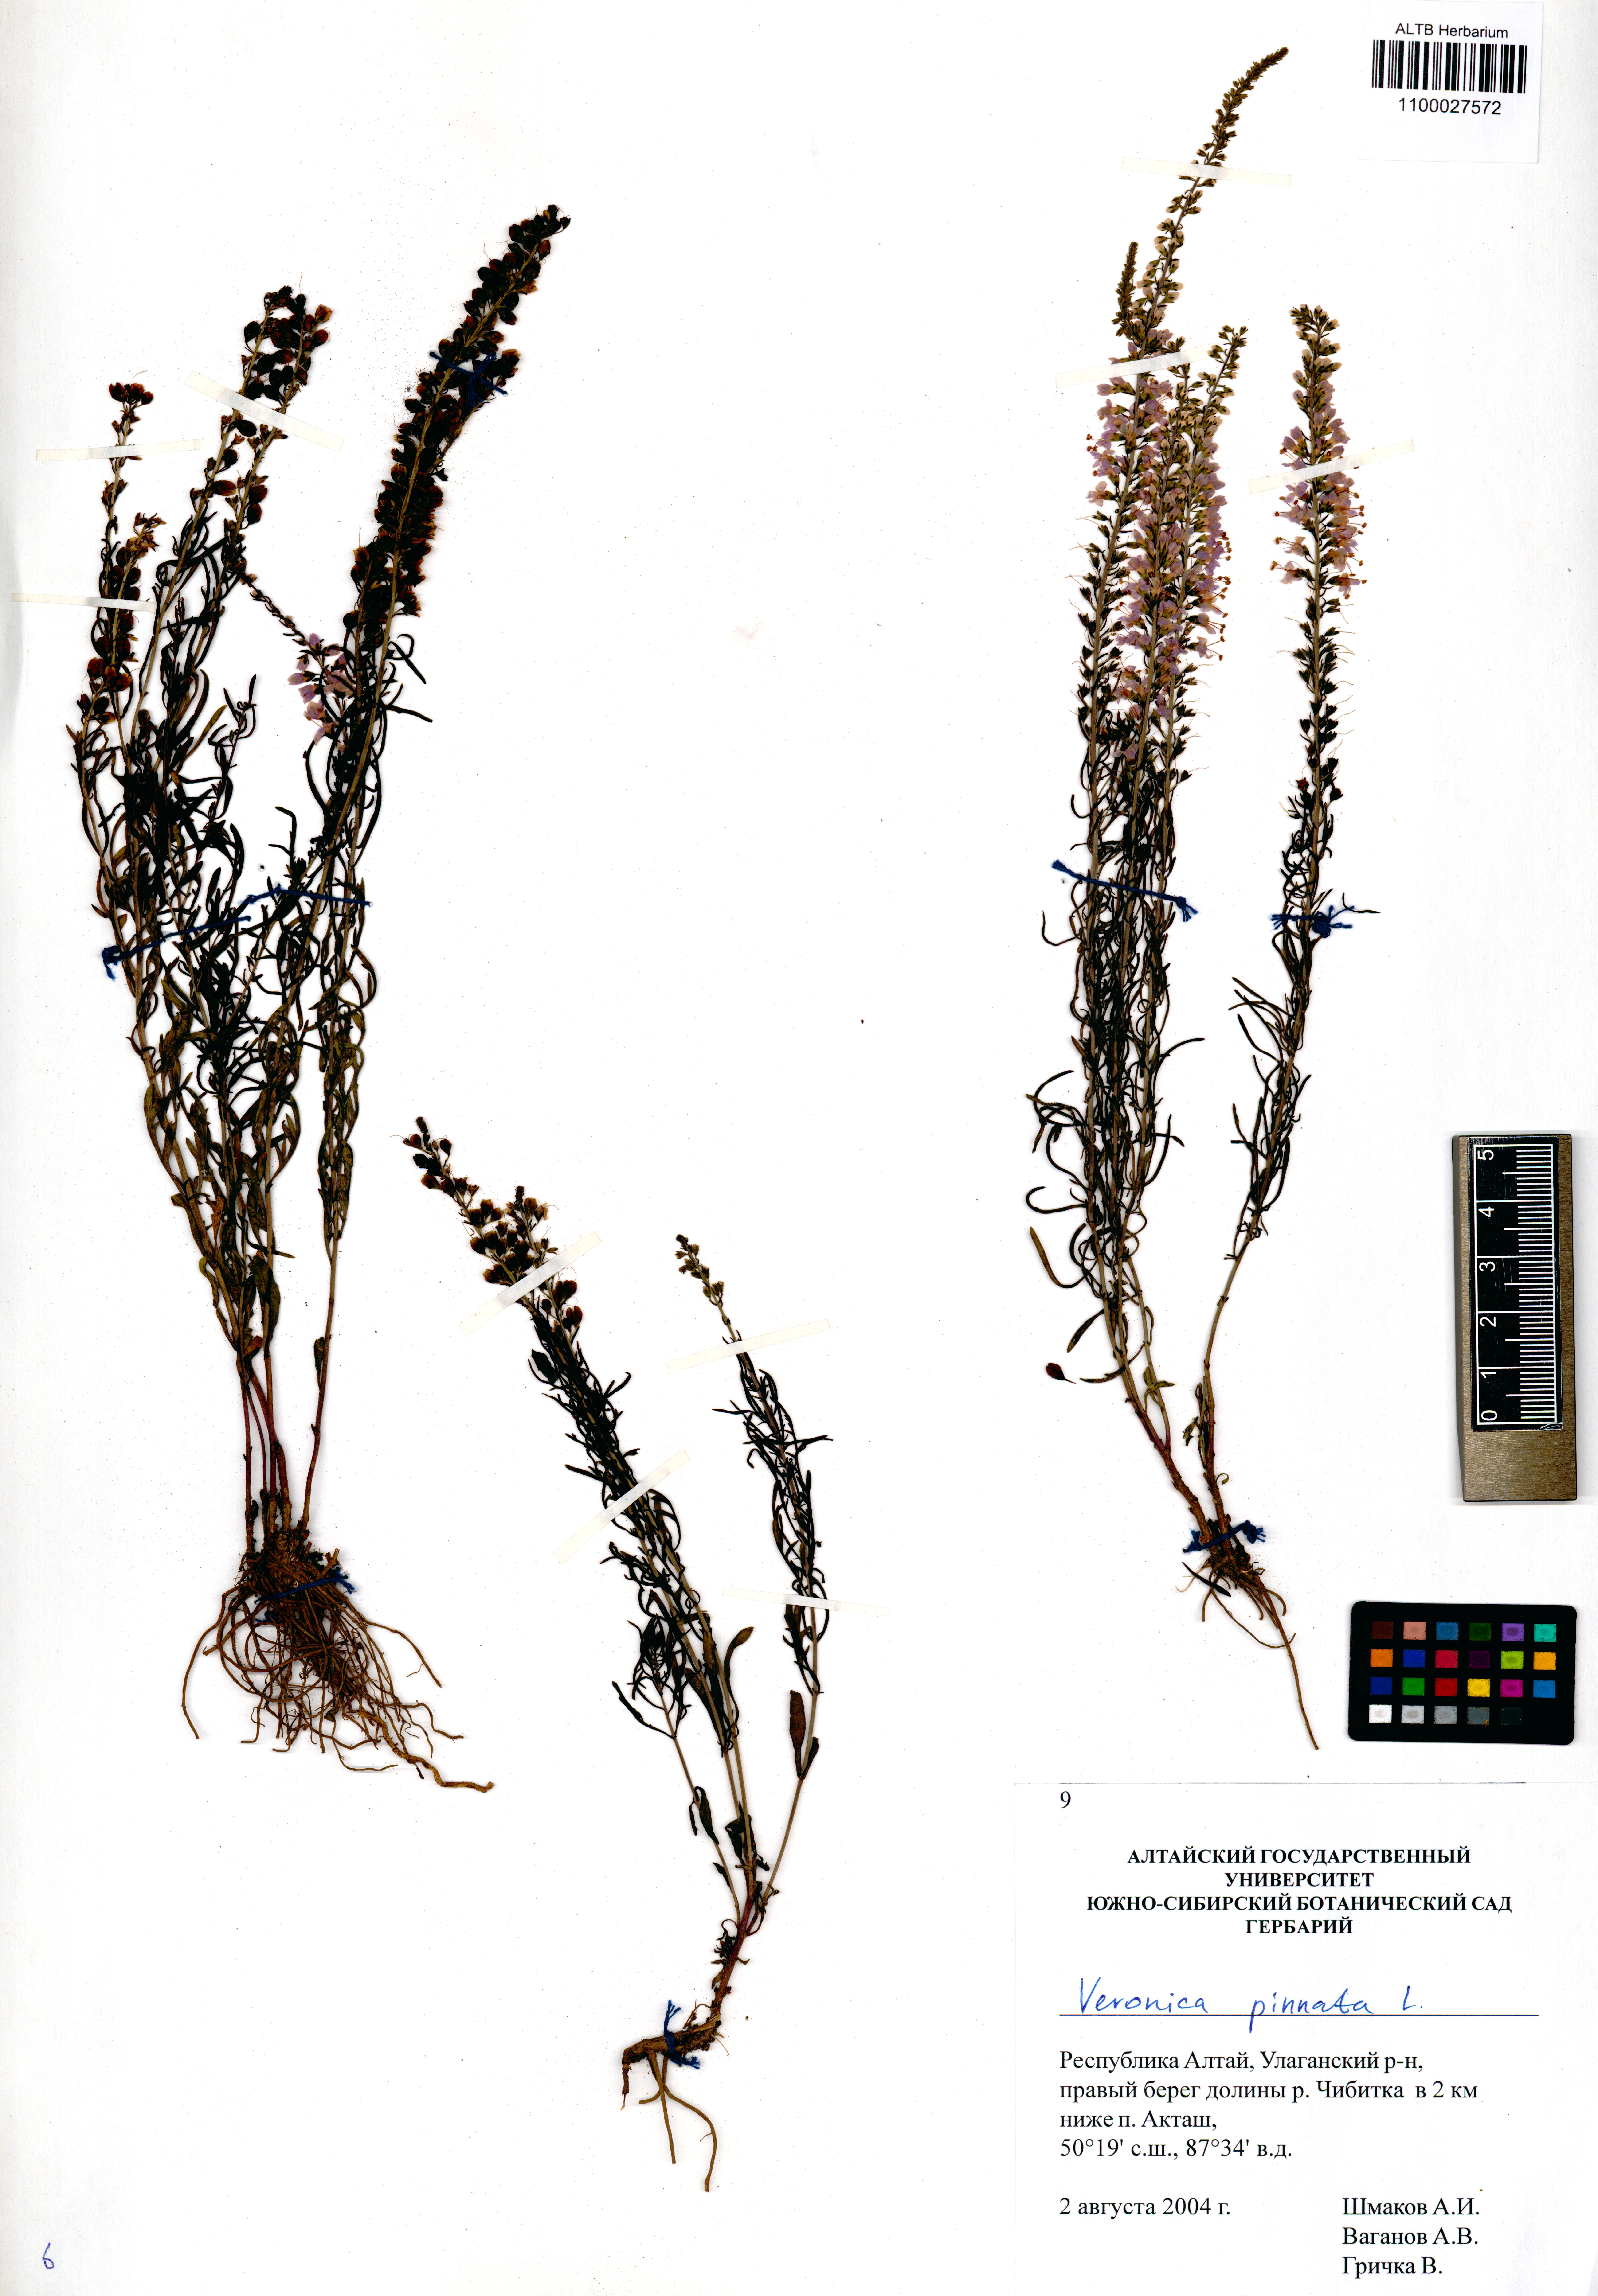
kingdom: Plantae
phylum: Tracheophyta
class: Magnoliopsida
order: Lamiales
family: Plantaginaceae
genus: Veronica
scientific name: Veronica pinnata
